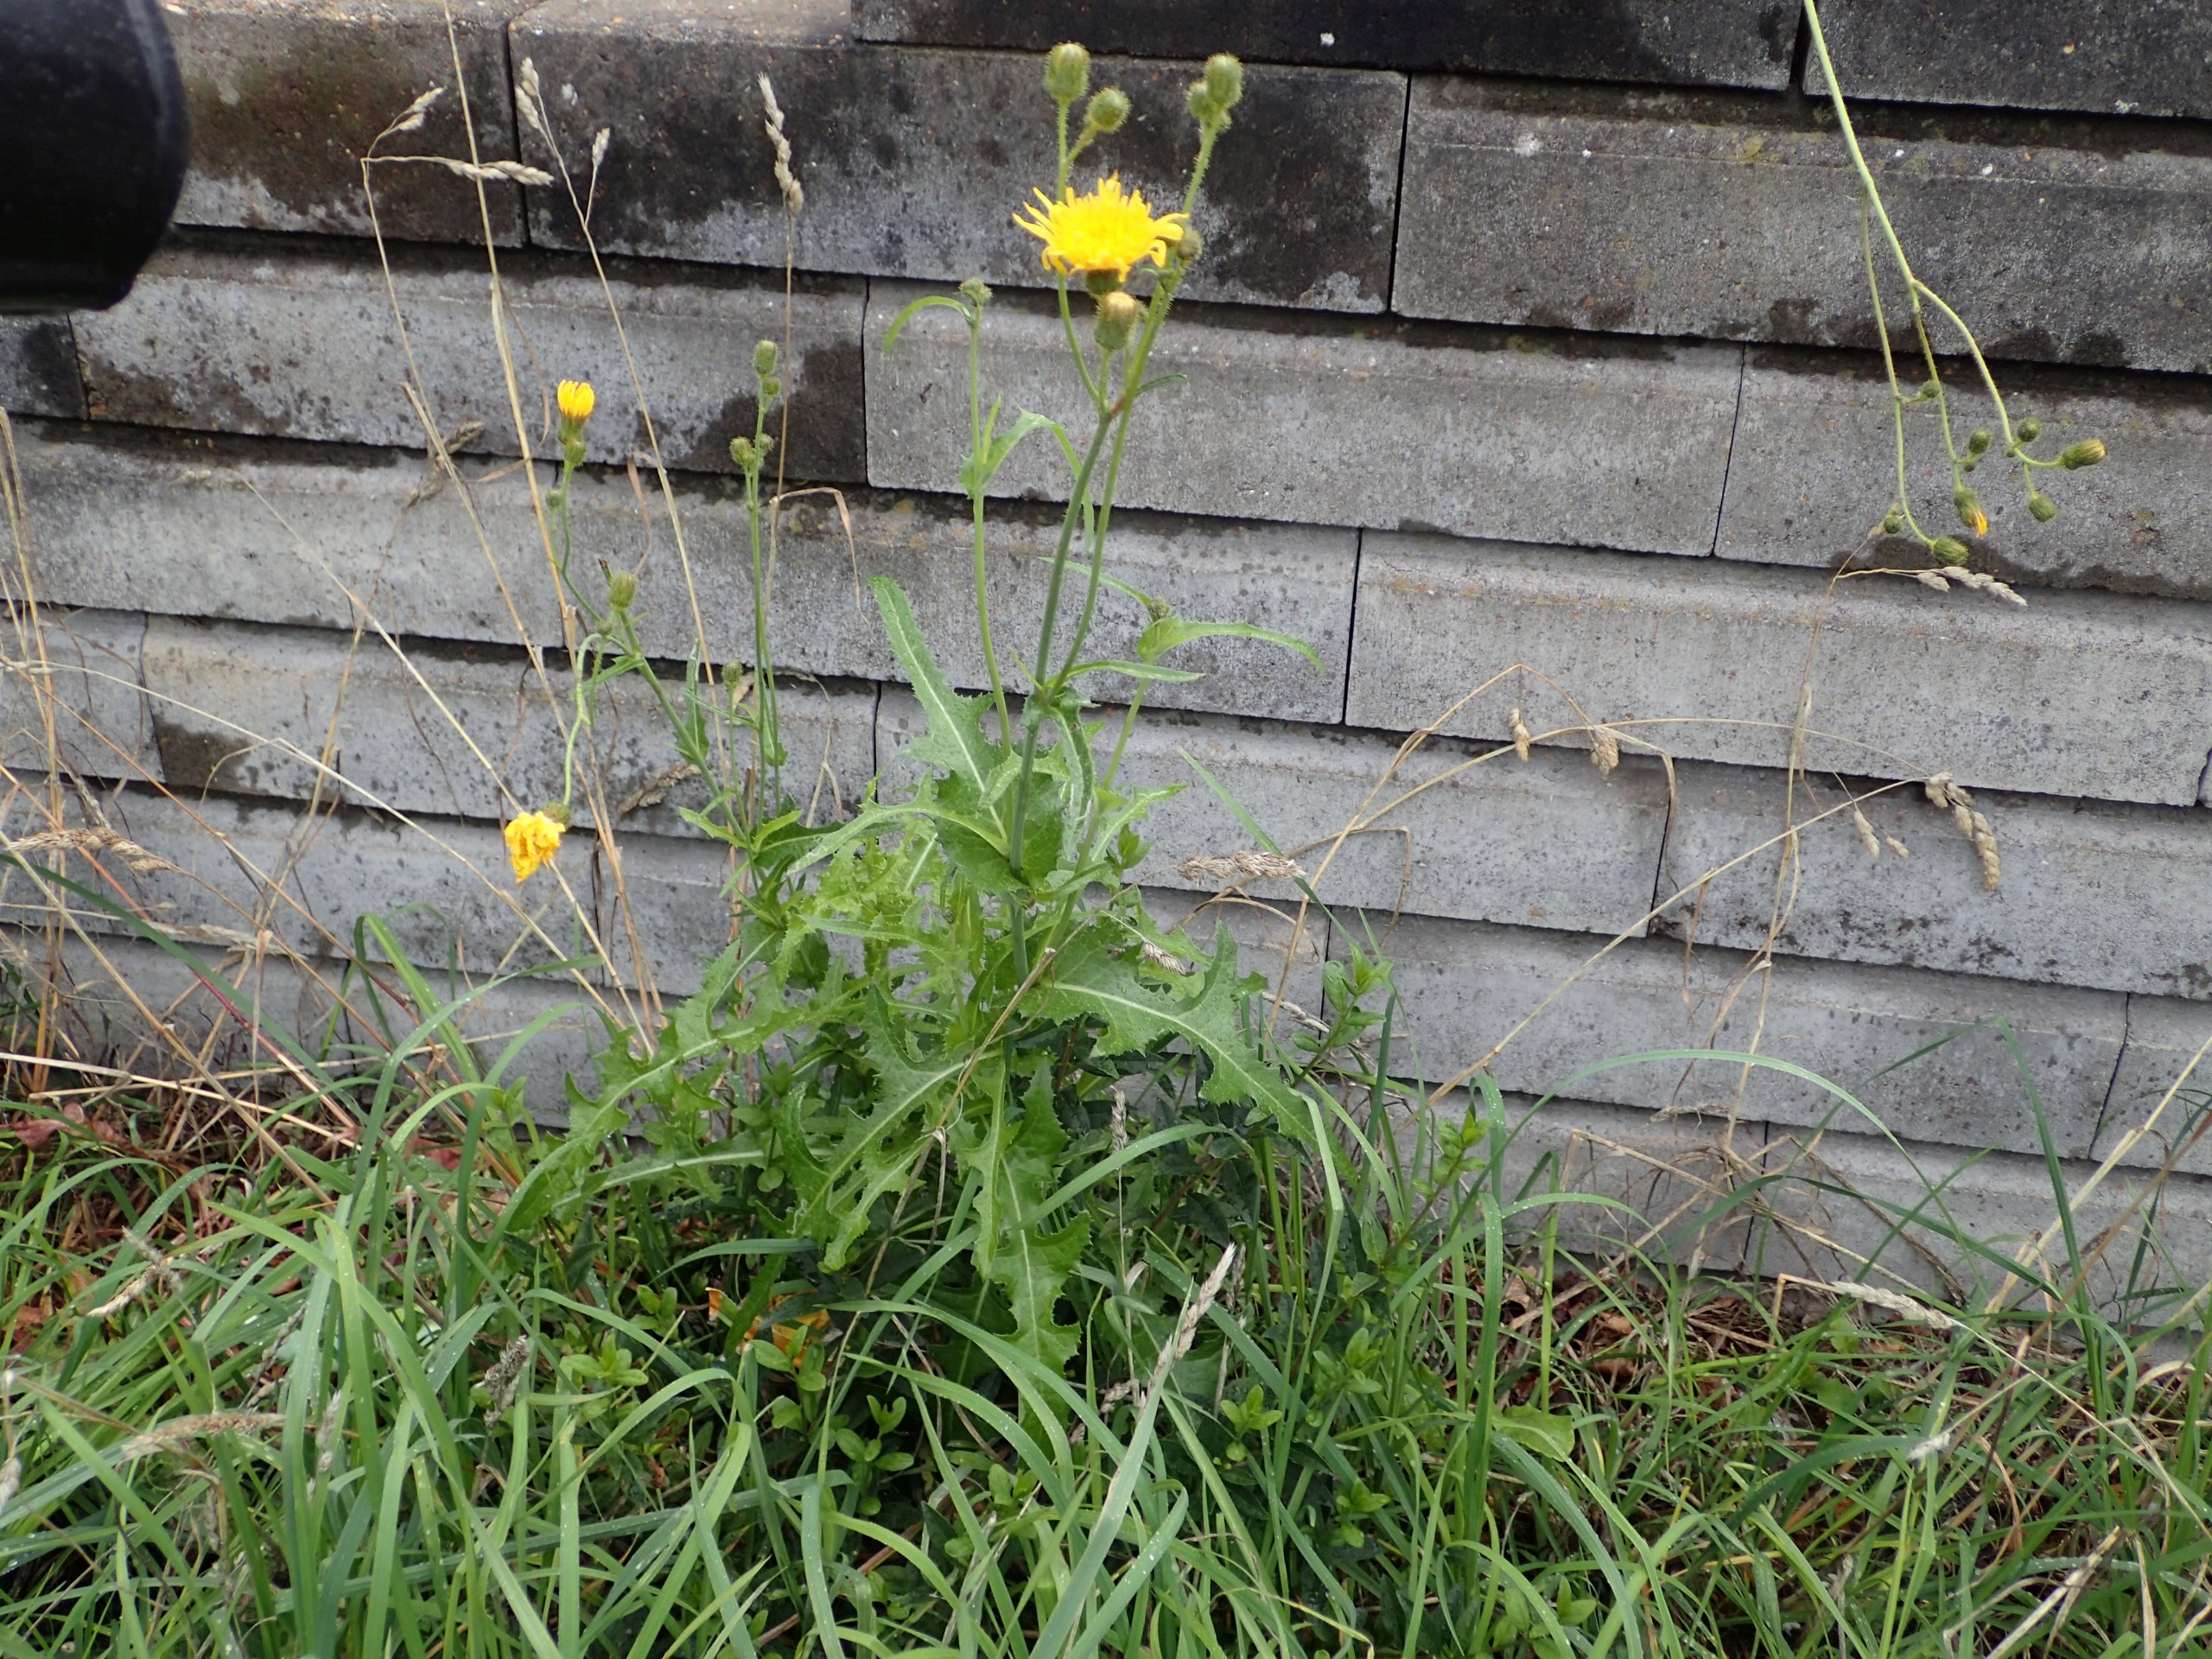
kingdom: Plantae
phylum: Tracheophyta
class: Magnoliopsida
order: Asterales
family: Asteraceae
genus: Sonchus
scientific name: Sonchus arvensis
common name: Ager-svinemælk
